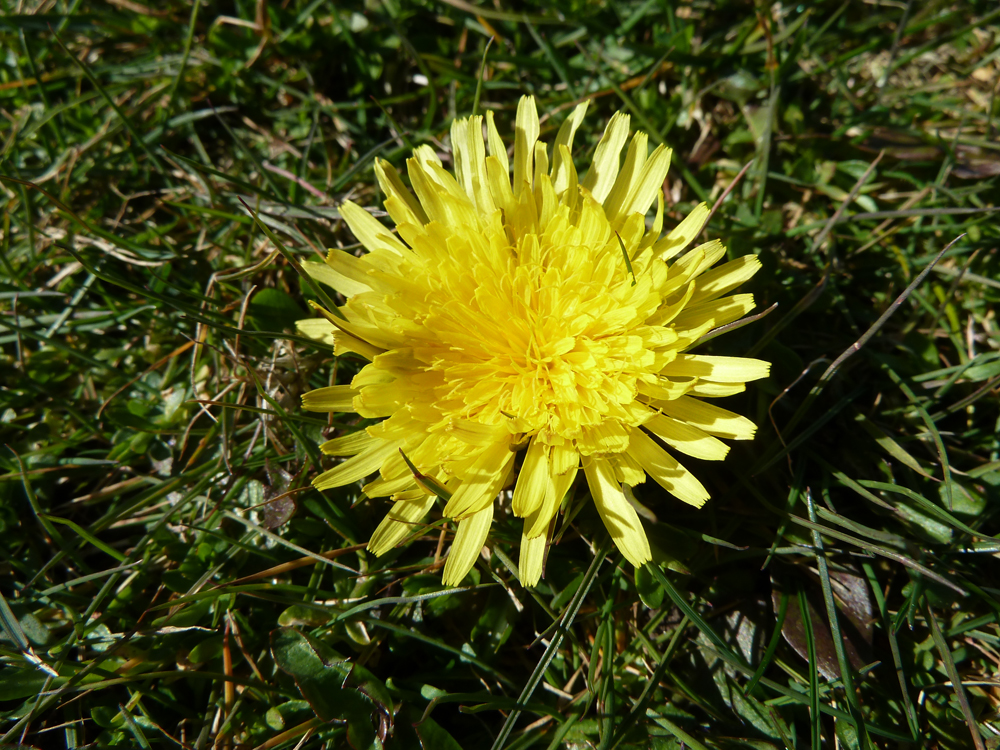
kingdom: Plantae
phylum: Tracheophyta
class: Magnoliopsida
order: Asterales
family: Asteraceae
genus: Taraxacum
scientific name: Taraxacum
